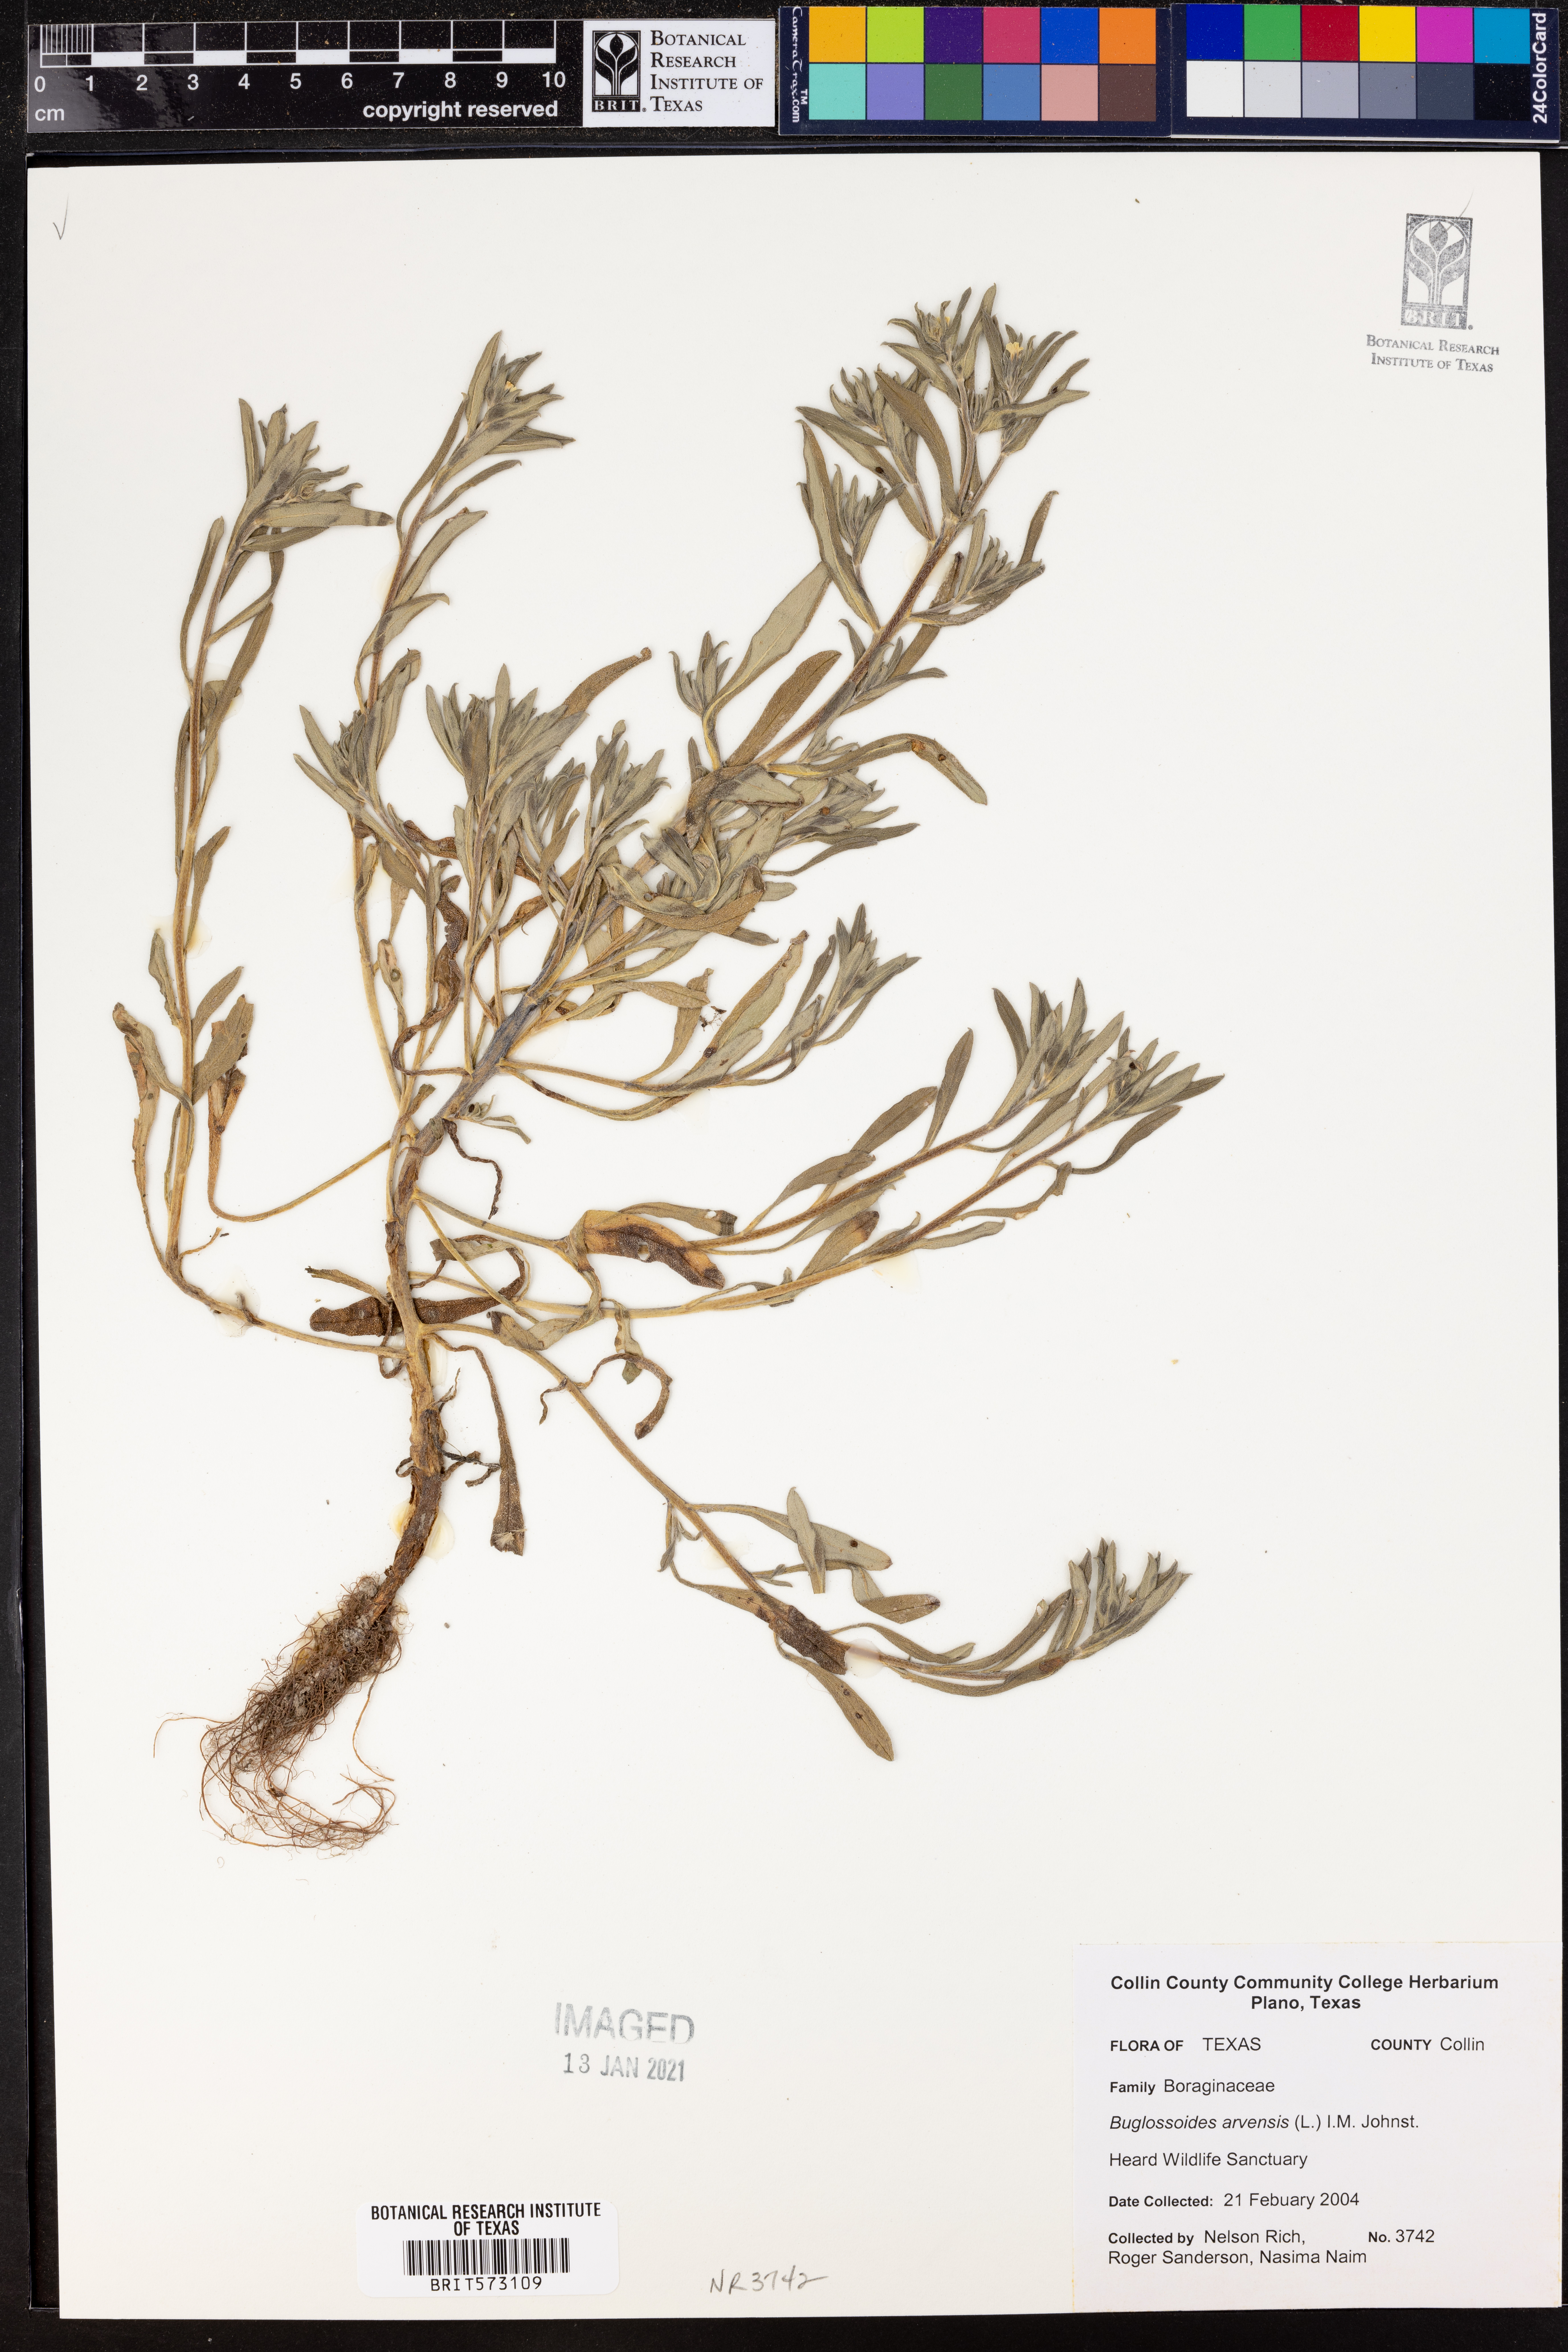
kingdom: Plantae
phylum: Tracheophyta
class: Magnoliopsida
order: Boraginales
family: Boraginaceae
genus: Buglossoides
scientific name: Buglossoides arvensis
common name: Corn gromwell
